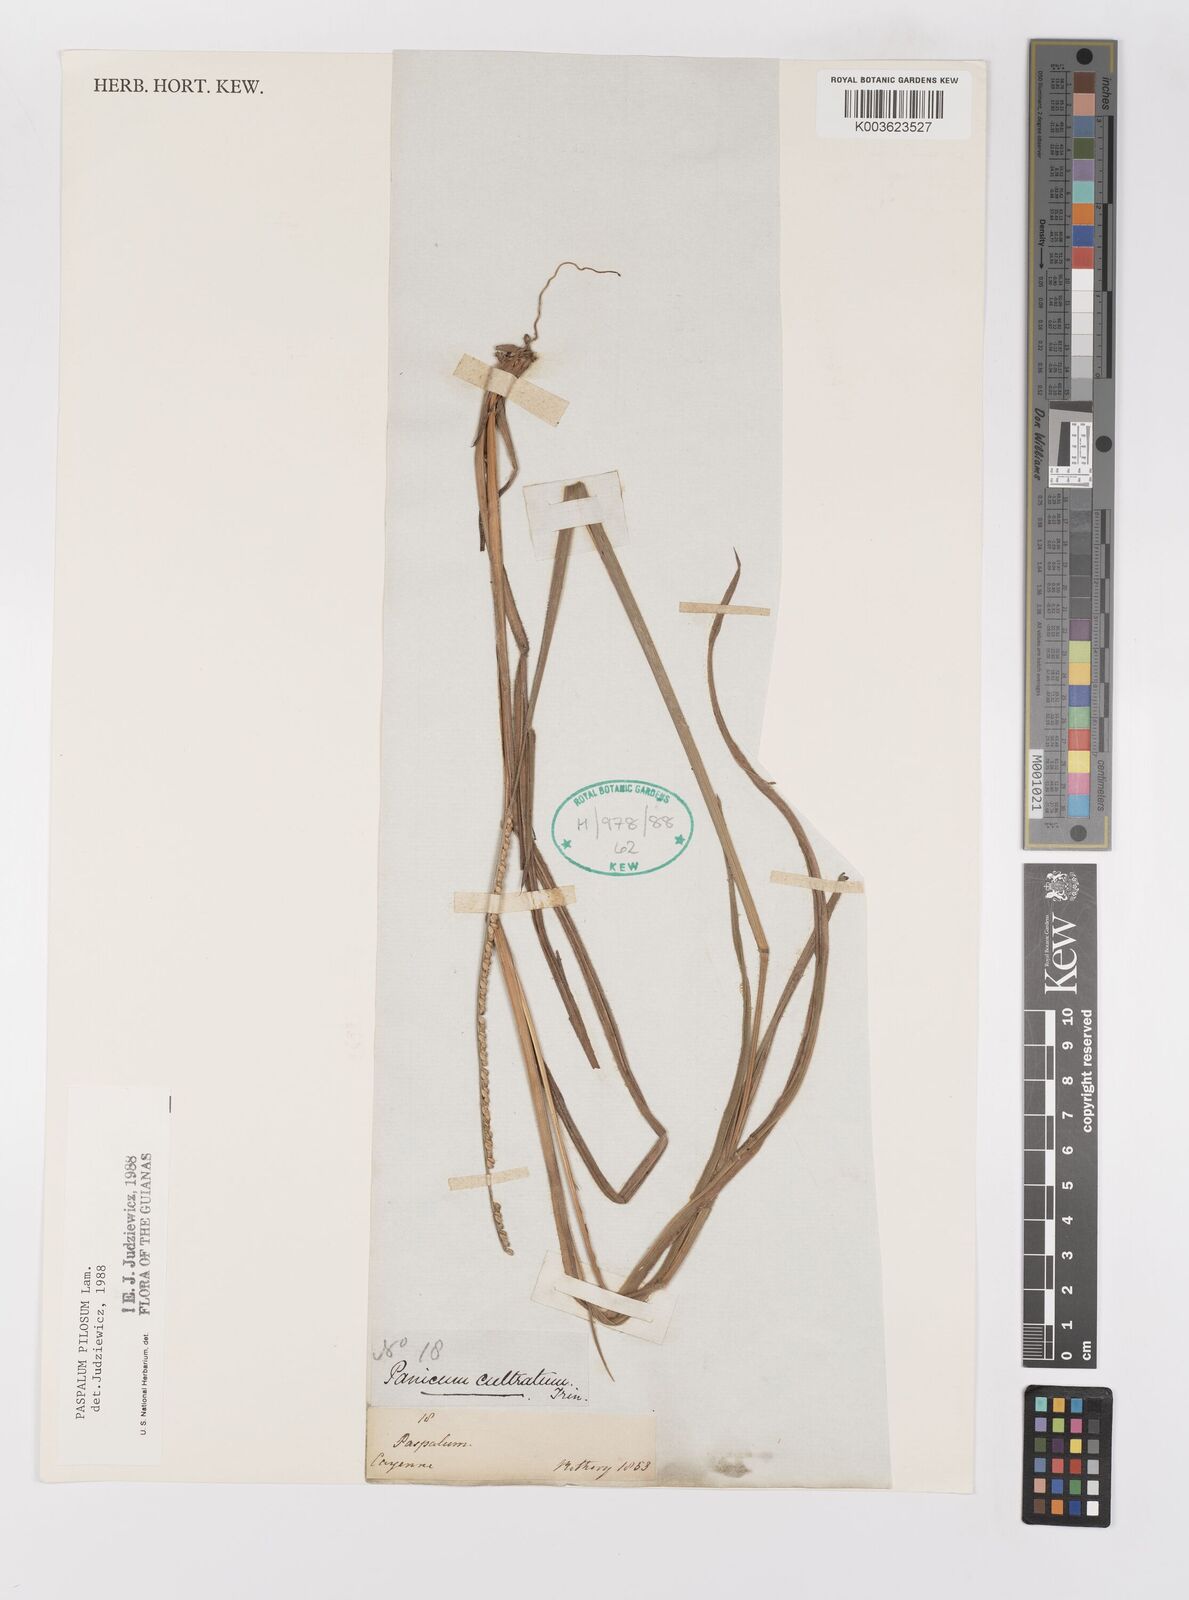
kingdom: Plantae
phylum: Tracheophyta
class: Liliopsida
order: Poales
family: Poaceae
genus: Paspalum
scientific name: Paspalum pilosum
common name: Crowngrass
